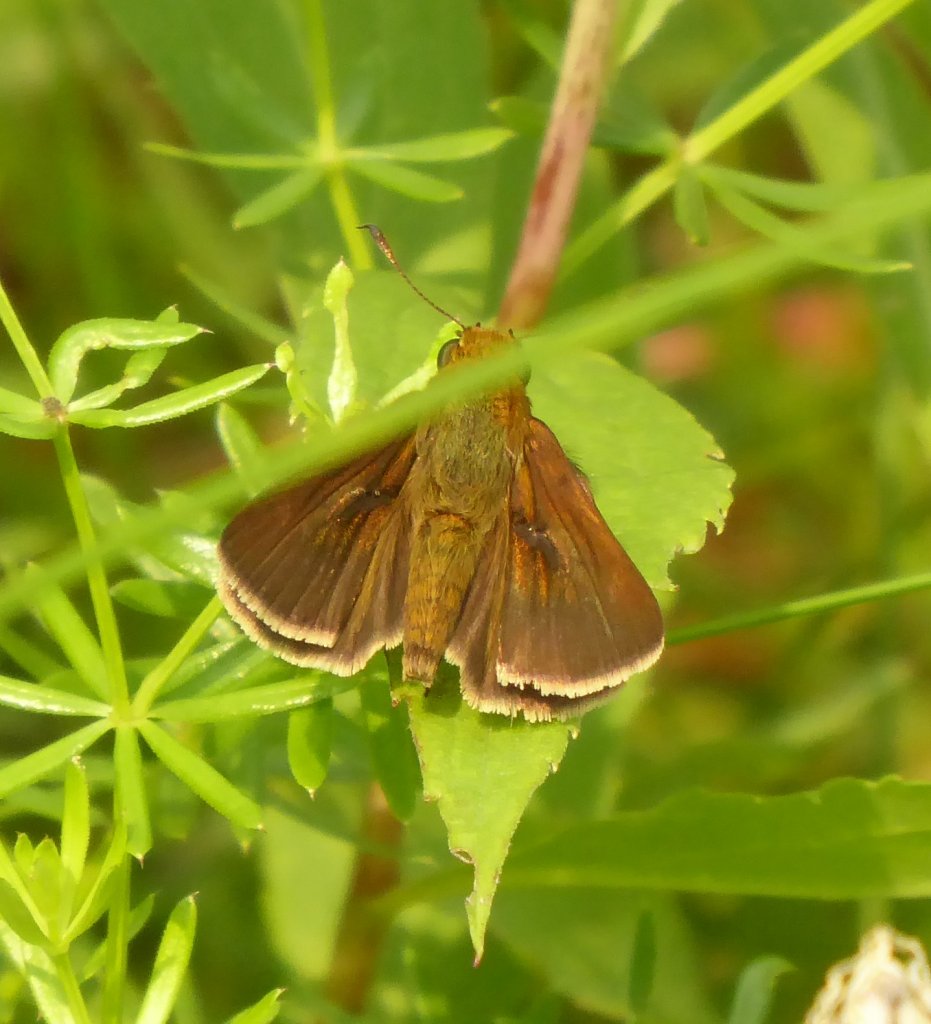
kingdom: Animalia
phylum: Arthropoda
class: Insecta
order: Lepidoptera
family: Hesperiidae
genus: Polites
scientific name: Polites egeremet
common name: Northern Broken-Dash
